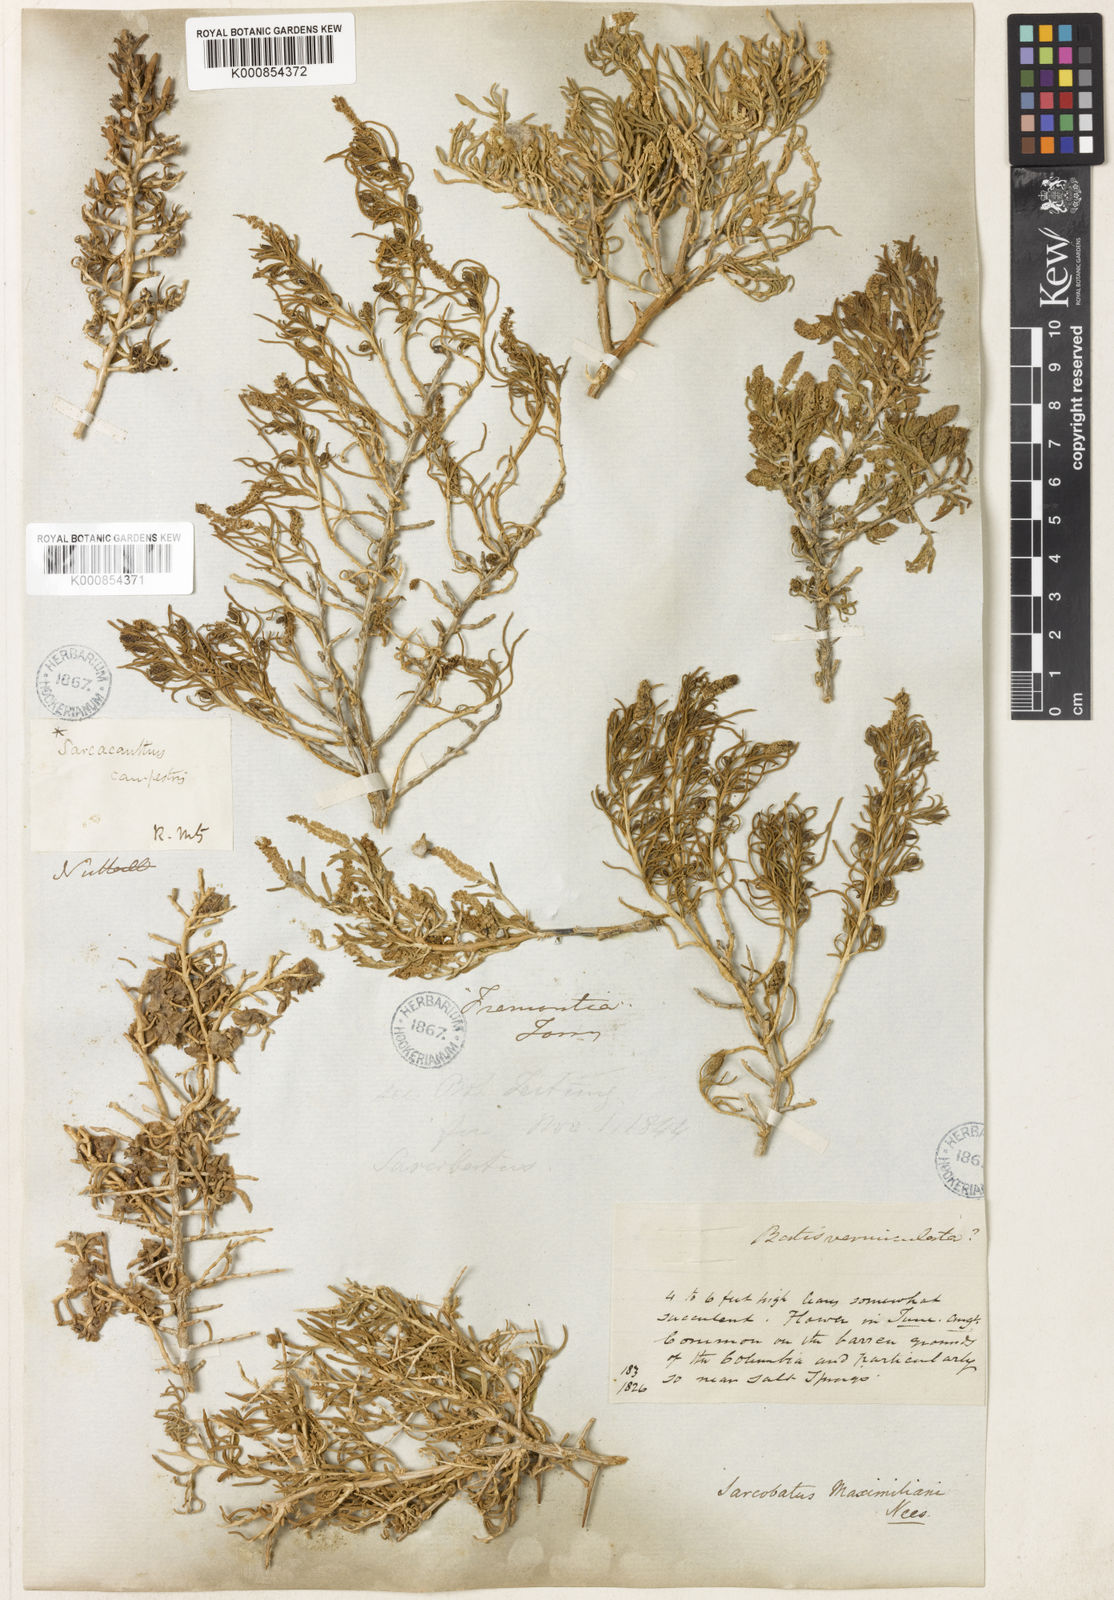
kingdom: Plantae
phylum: Tracheophyta
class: Magnoliopsida
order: Caryophyllales
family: Sarcobataceae
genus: Sarcobatus
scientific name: Sarcobatus vermiculatus
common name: Greasewood
